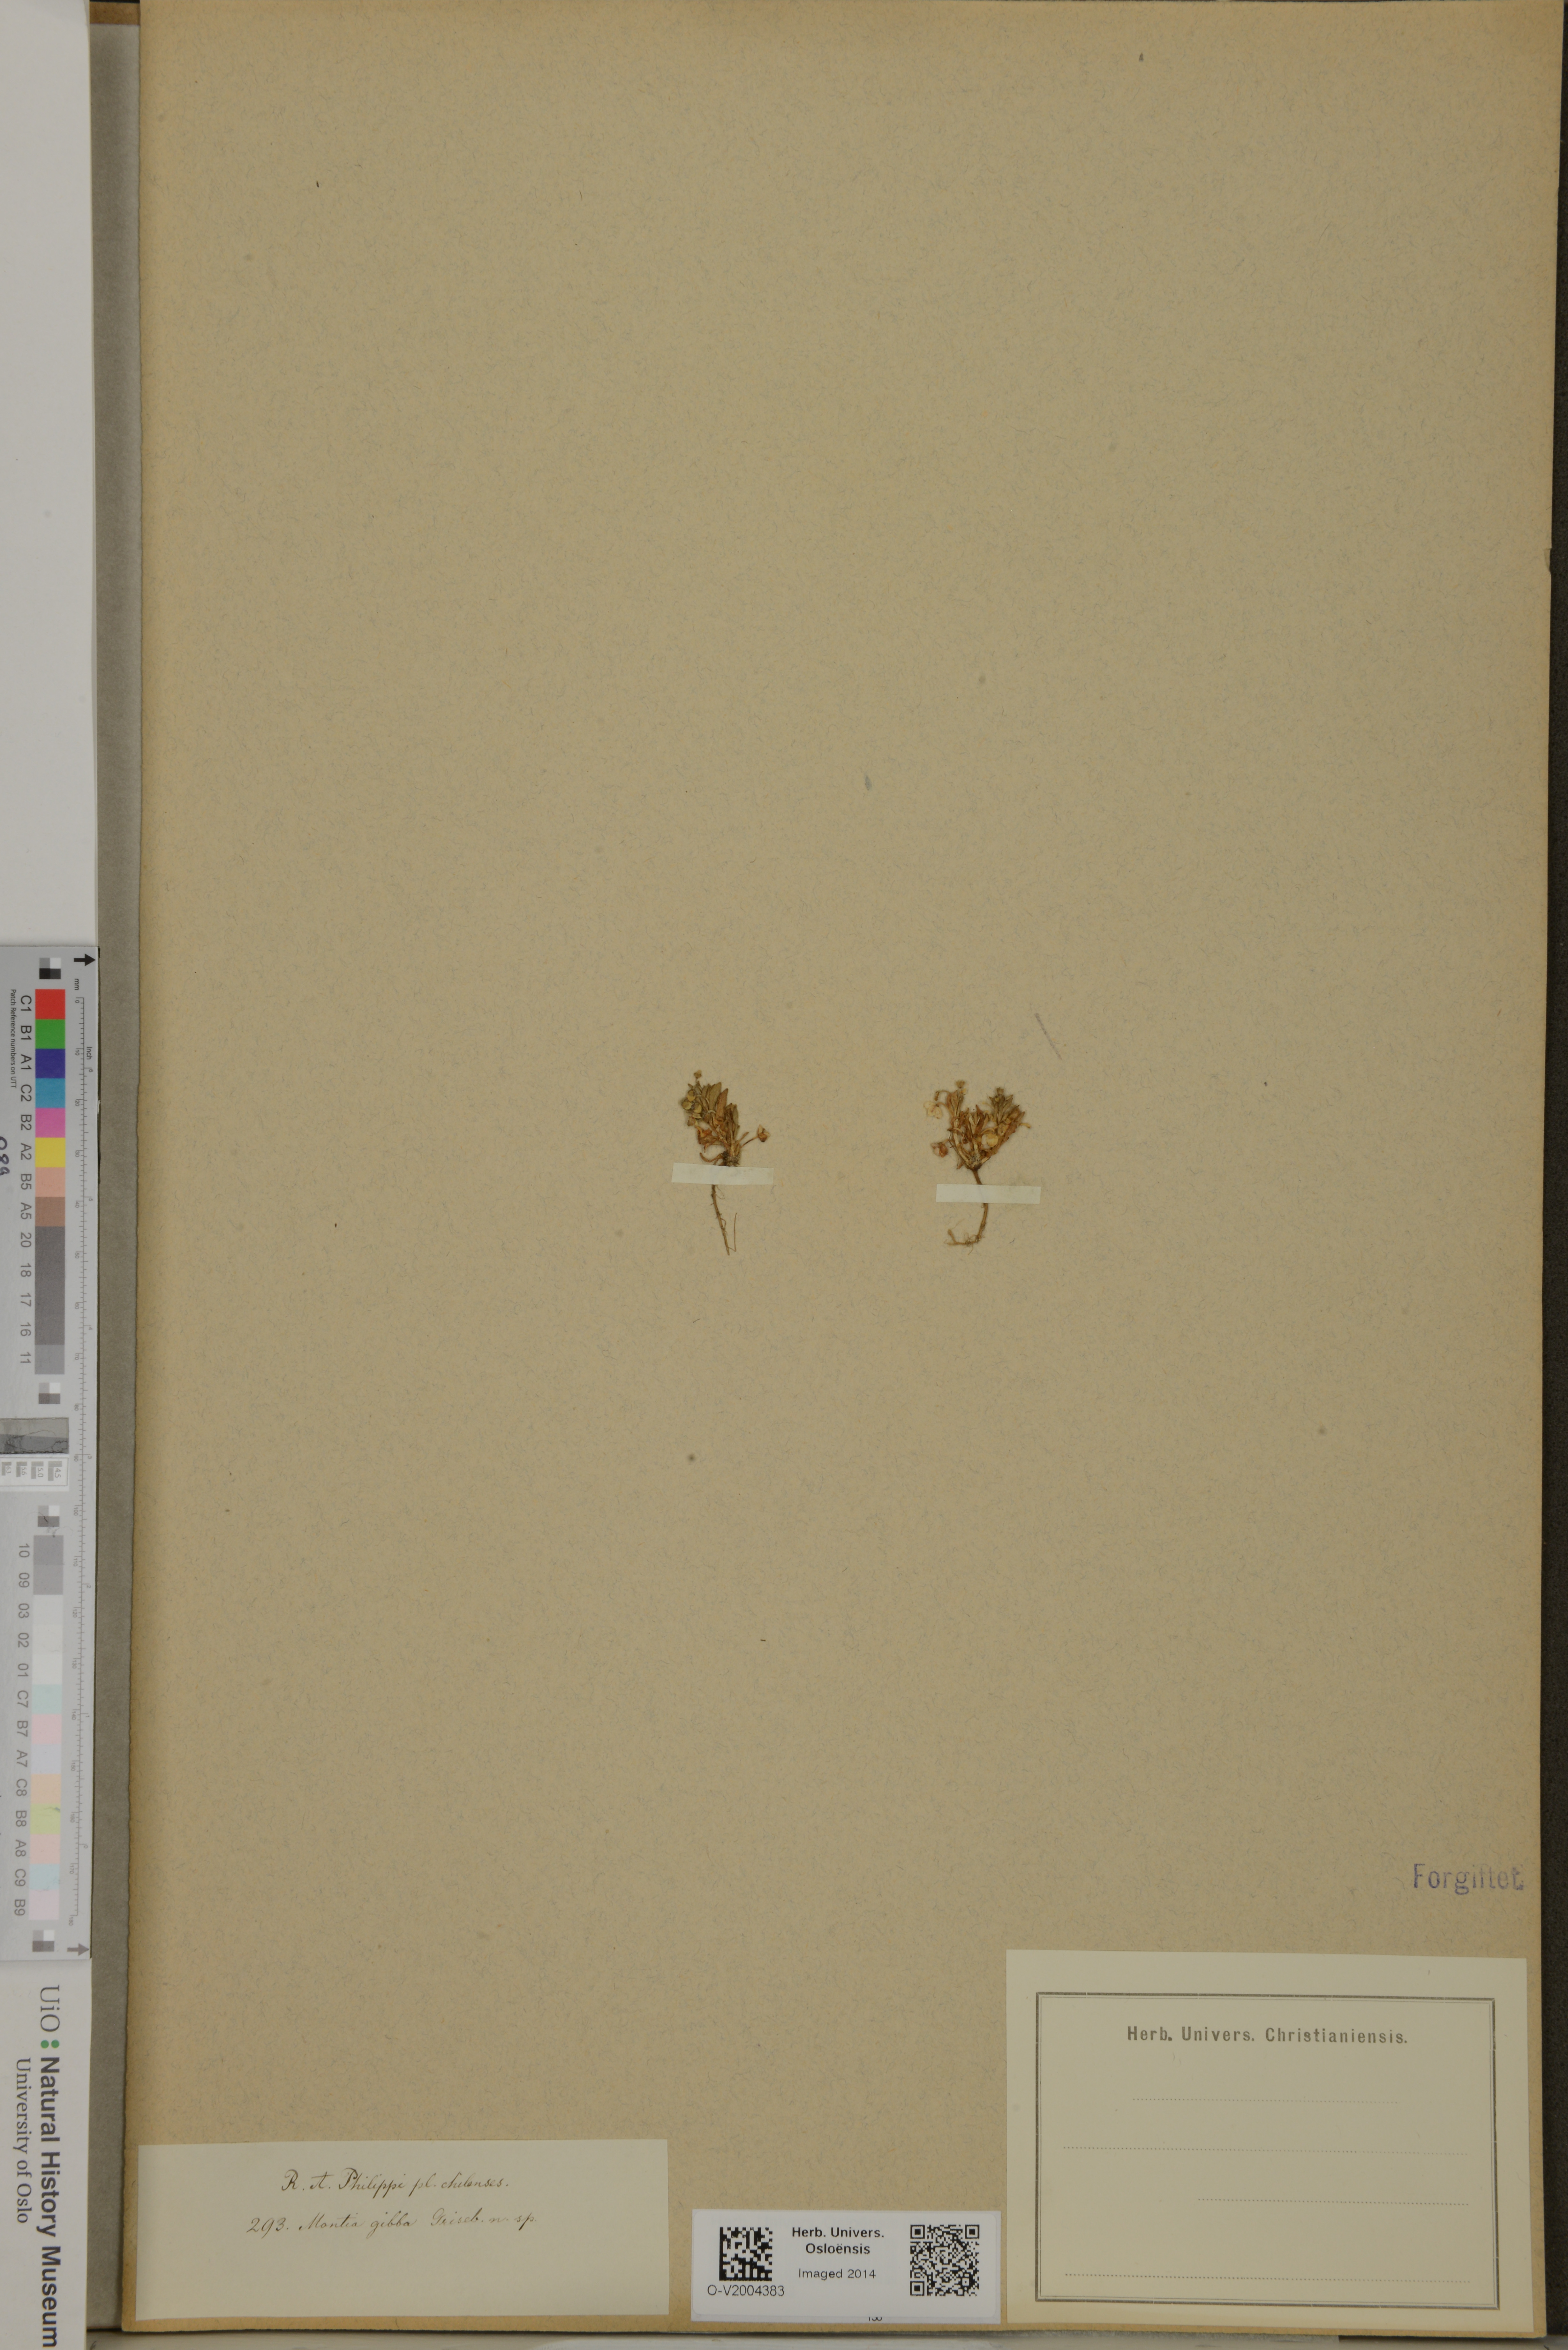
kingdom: Plantae
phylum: Tracheophyta
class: Magnoliopsida
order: Caryophyllales
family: Montiaceae
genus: Calandrinia
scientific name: Calandrinia nitida
